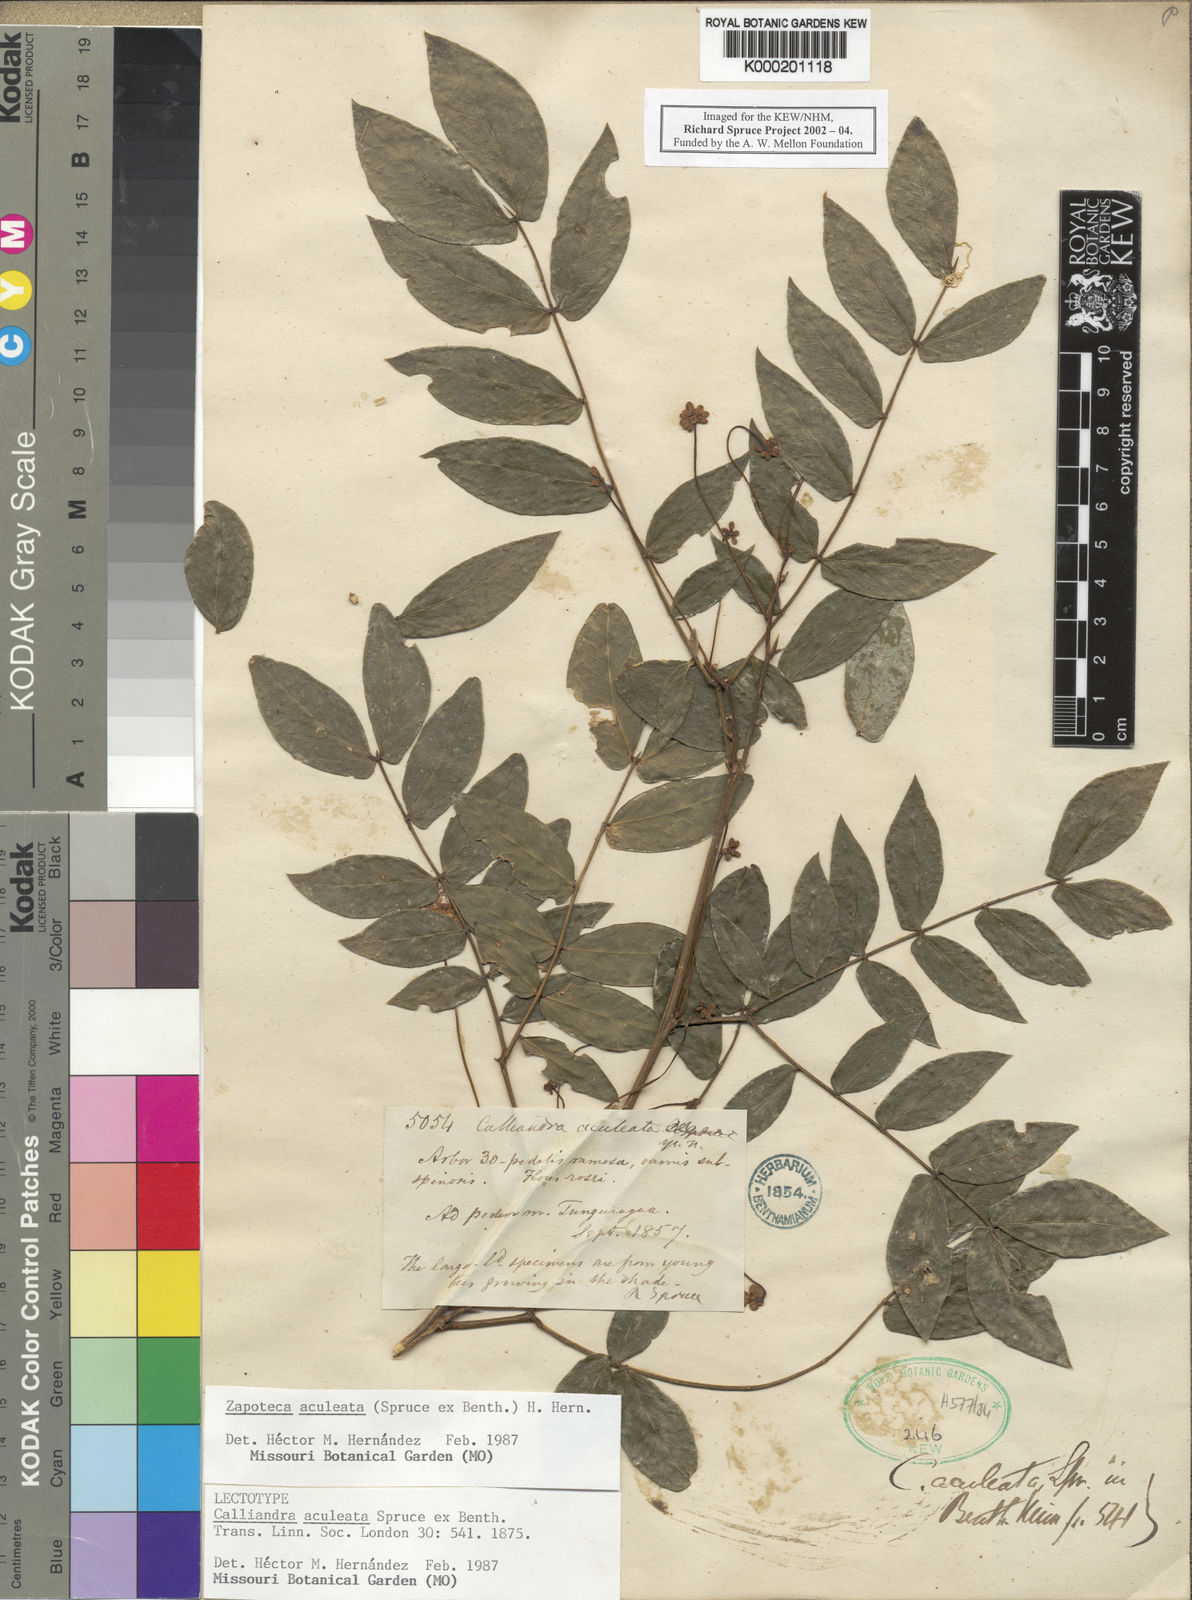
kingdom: Plantae
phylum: Tracheophyta
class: Magnoliopsida
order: Fabales
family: Fabaceae
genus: Zapoteca
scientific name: Zapoteca aculeata
